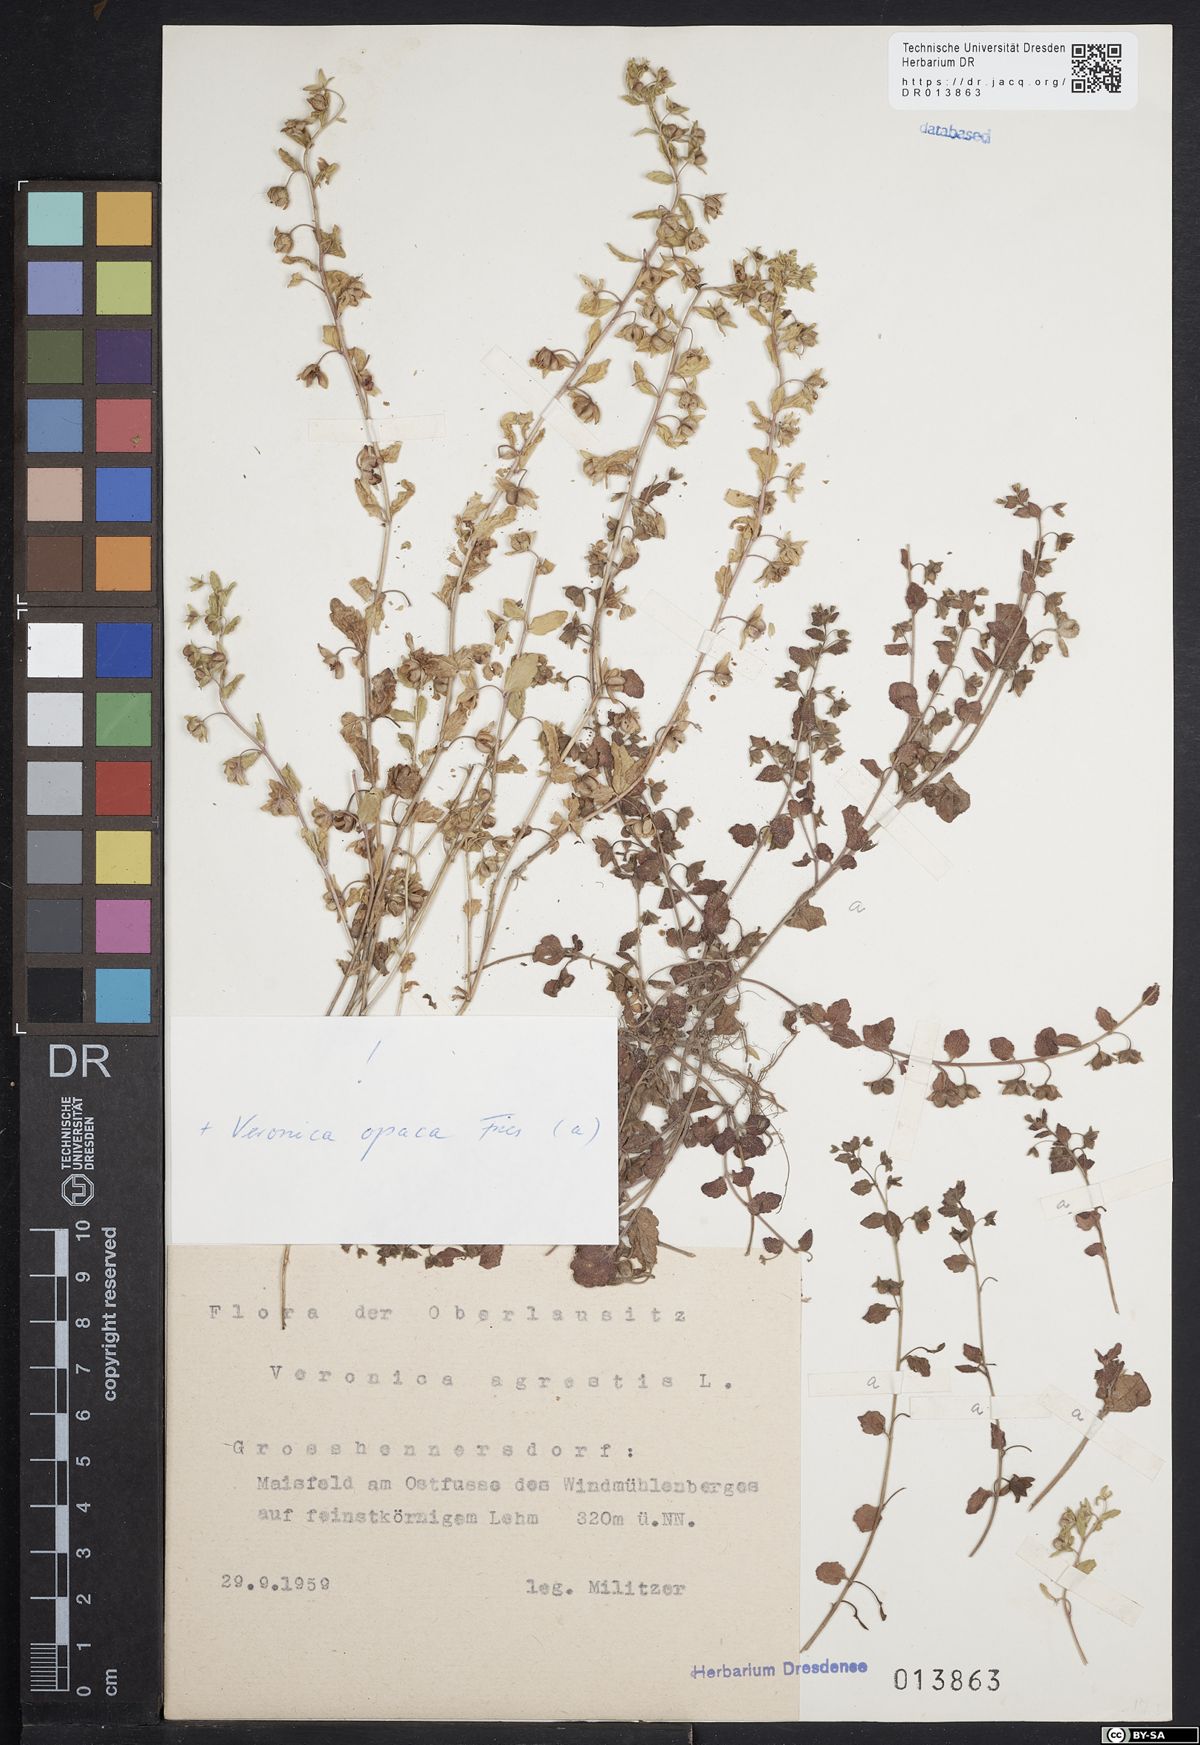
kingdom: Plantae
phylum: Tracheophyta
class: Magnoliopsida
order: Lamiales
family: Plantaginaceae
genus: Veronica
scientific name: Veronica opaca
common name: Dark speedwell
